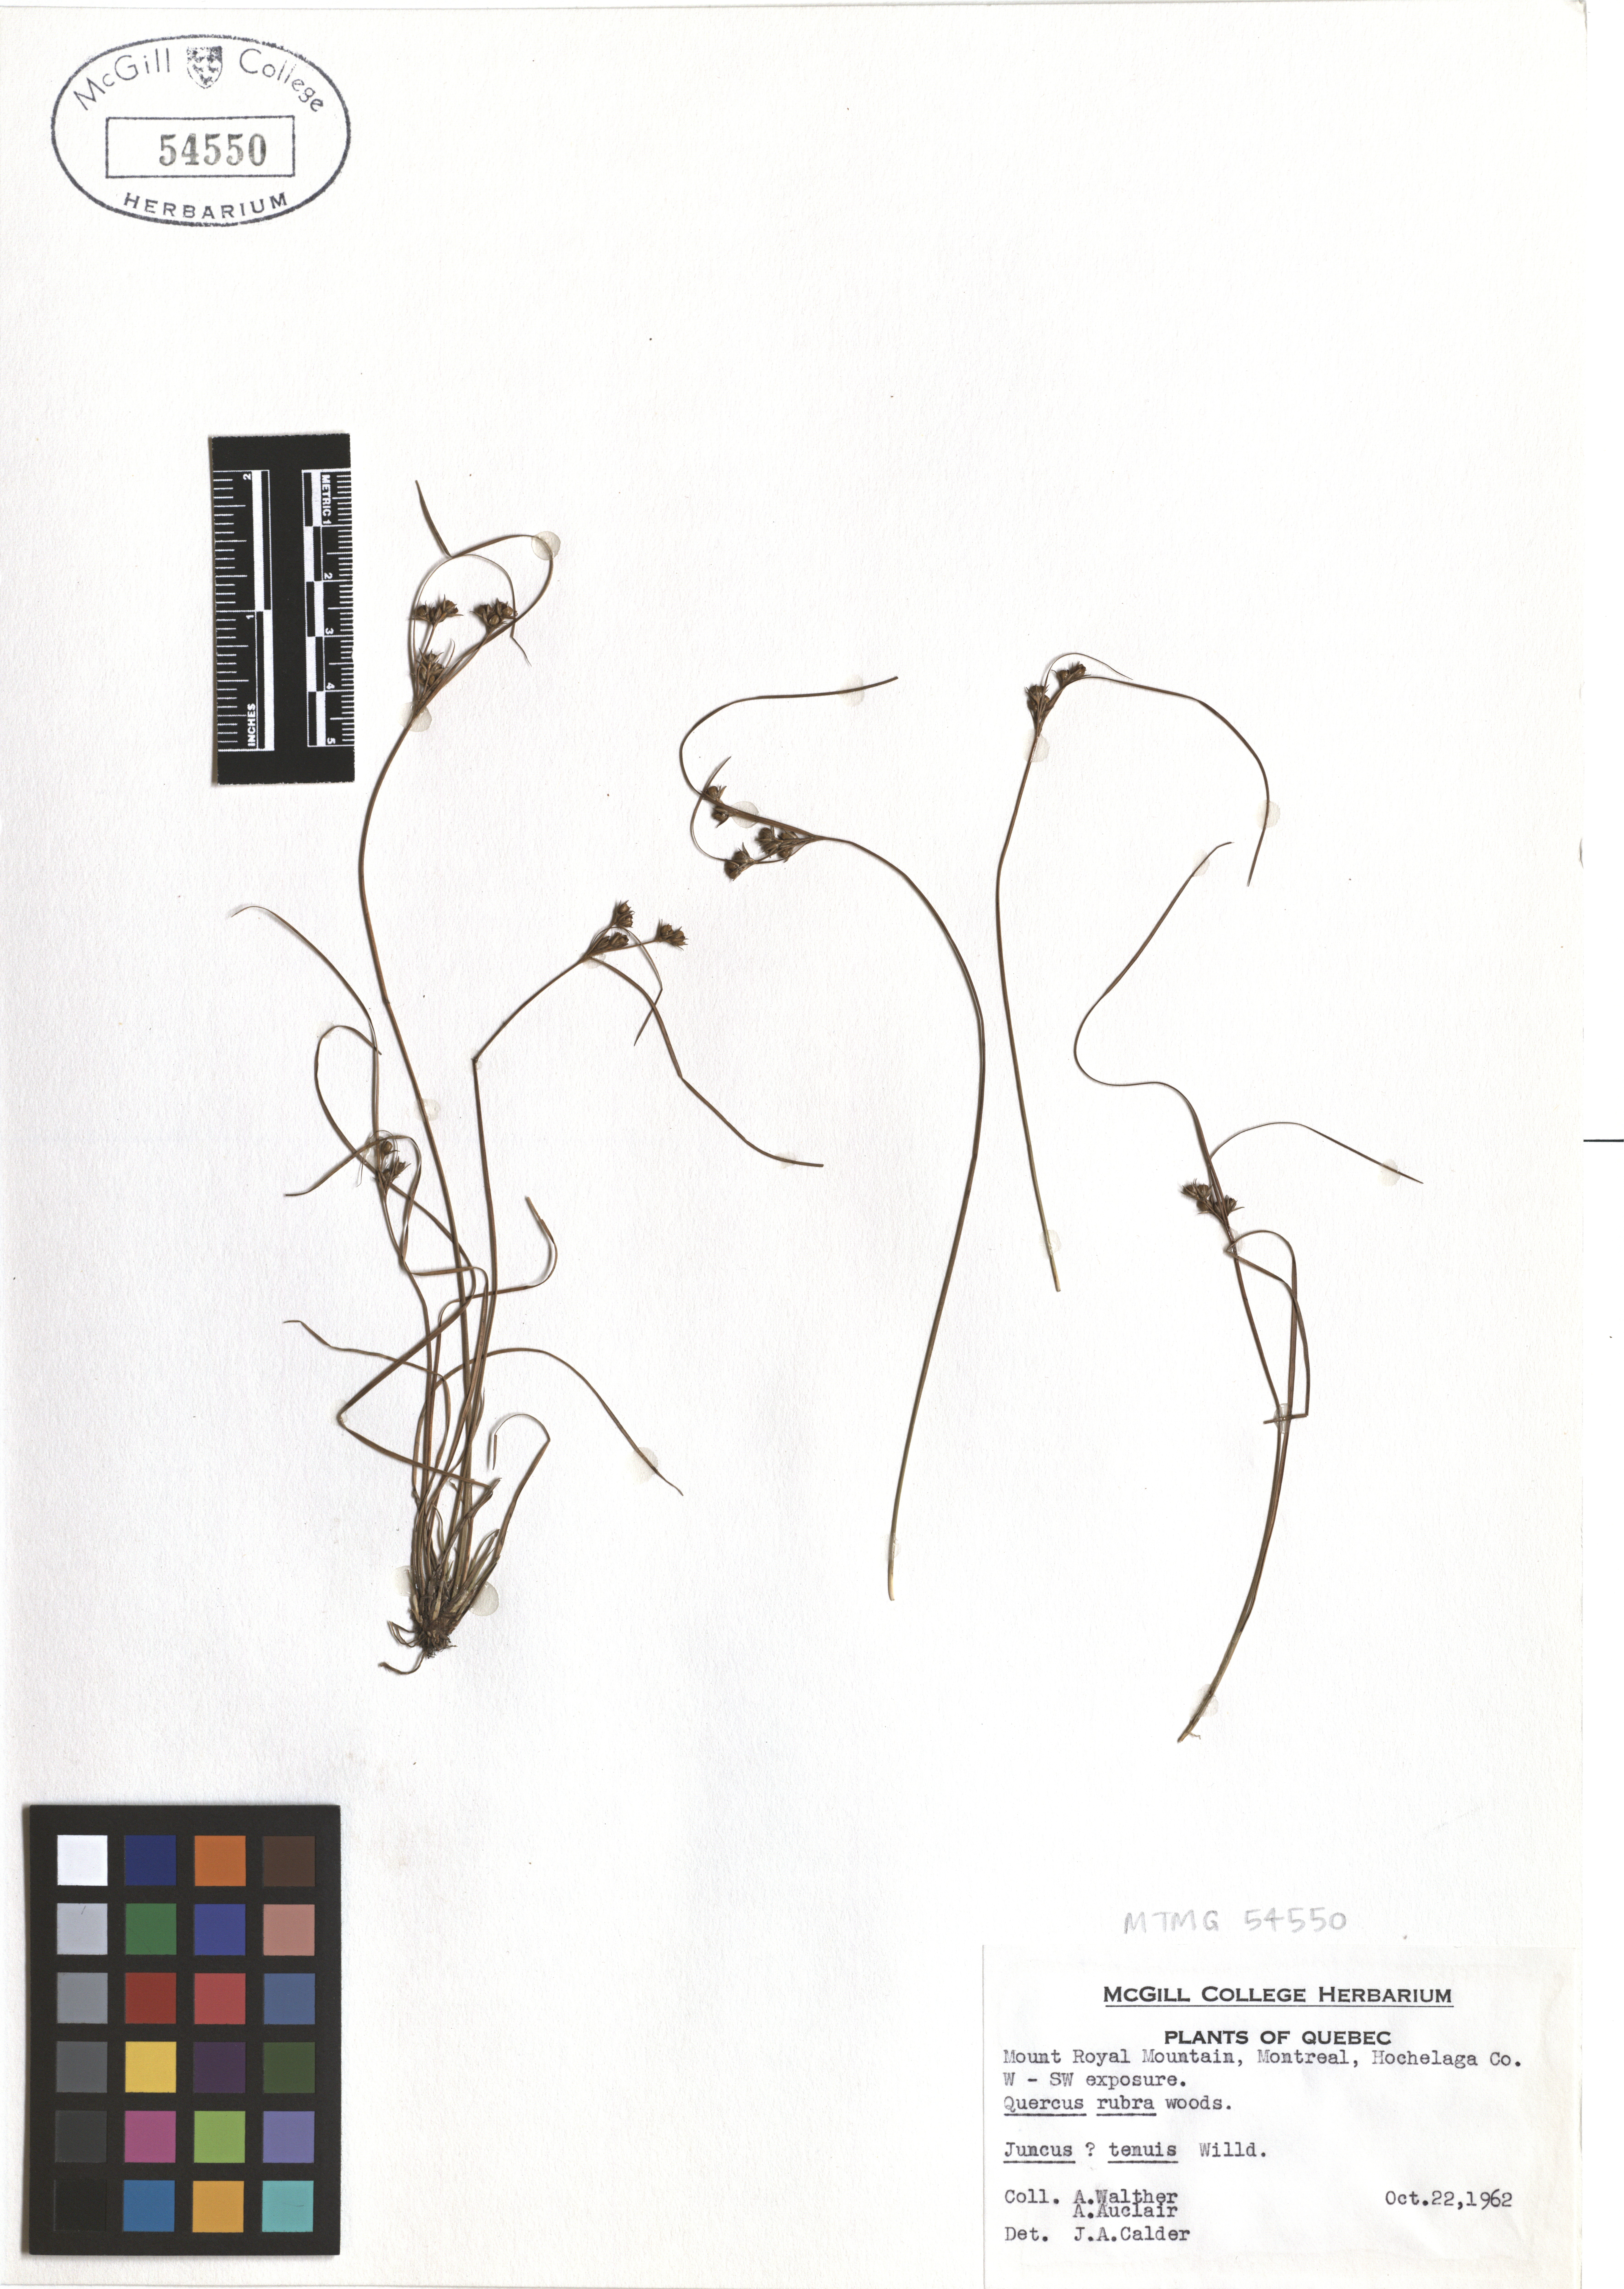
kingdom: Plantae
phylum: Tracheophyta
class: Liliopsida
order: Poales
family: Juncaceae
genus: Juncus
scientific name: Juncus tenuis
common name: Slender rush
